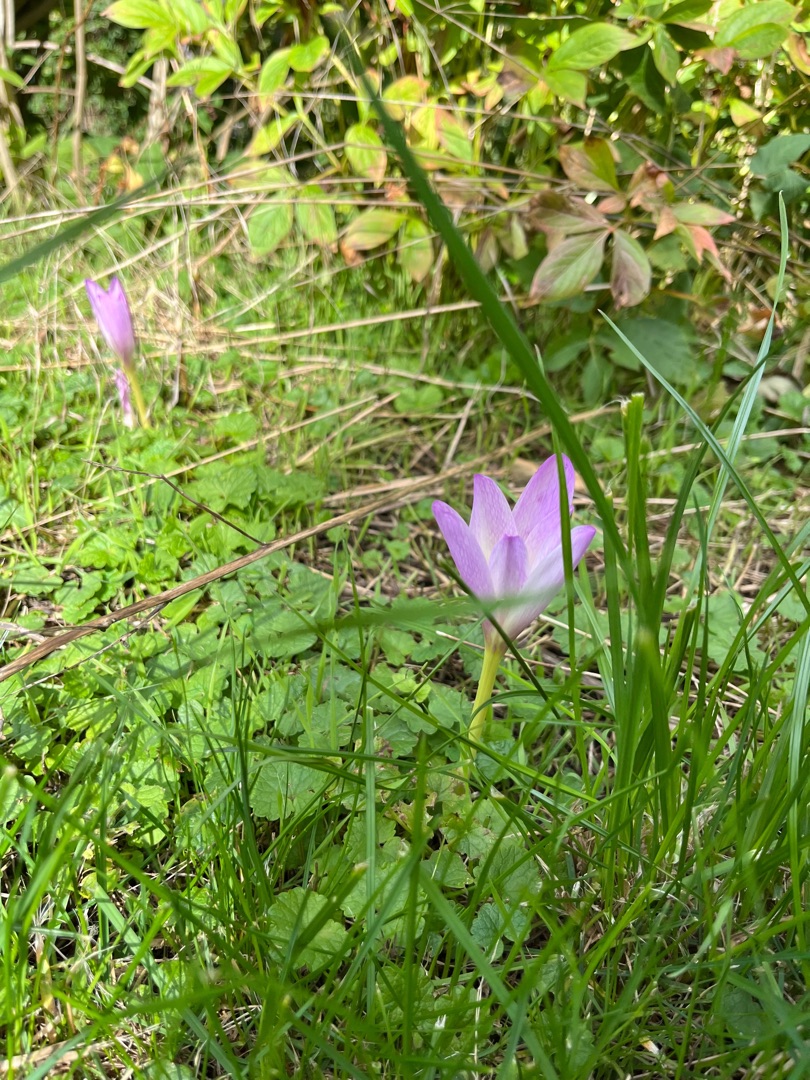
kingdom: Plantae
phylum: Tracheophyta
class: Liliopsida
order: Liliales
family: Colchicaceae
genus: Colchicum
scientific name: Colchicum autumnale
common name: Høst-tidløs
